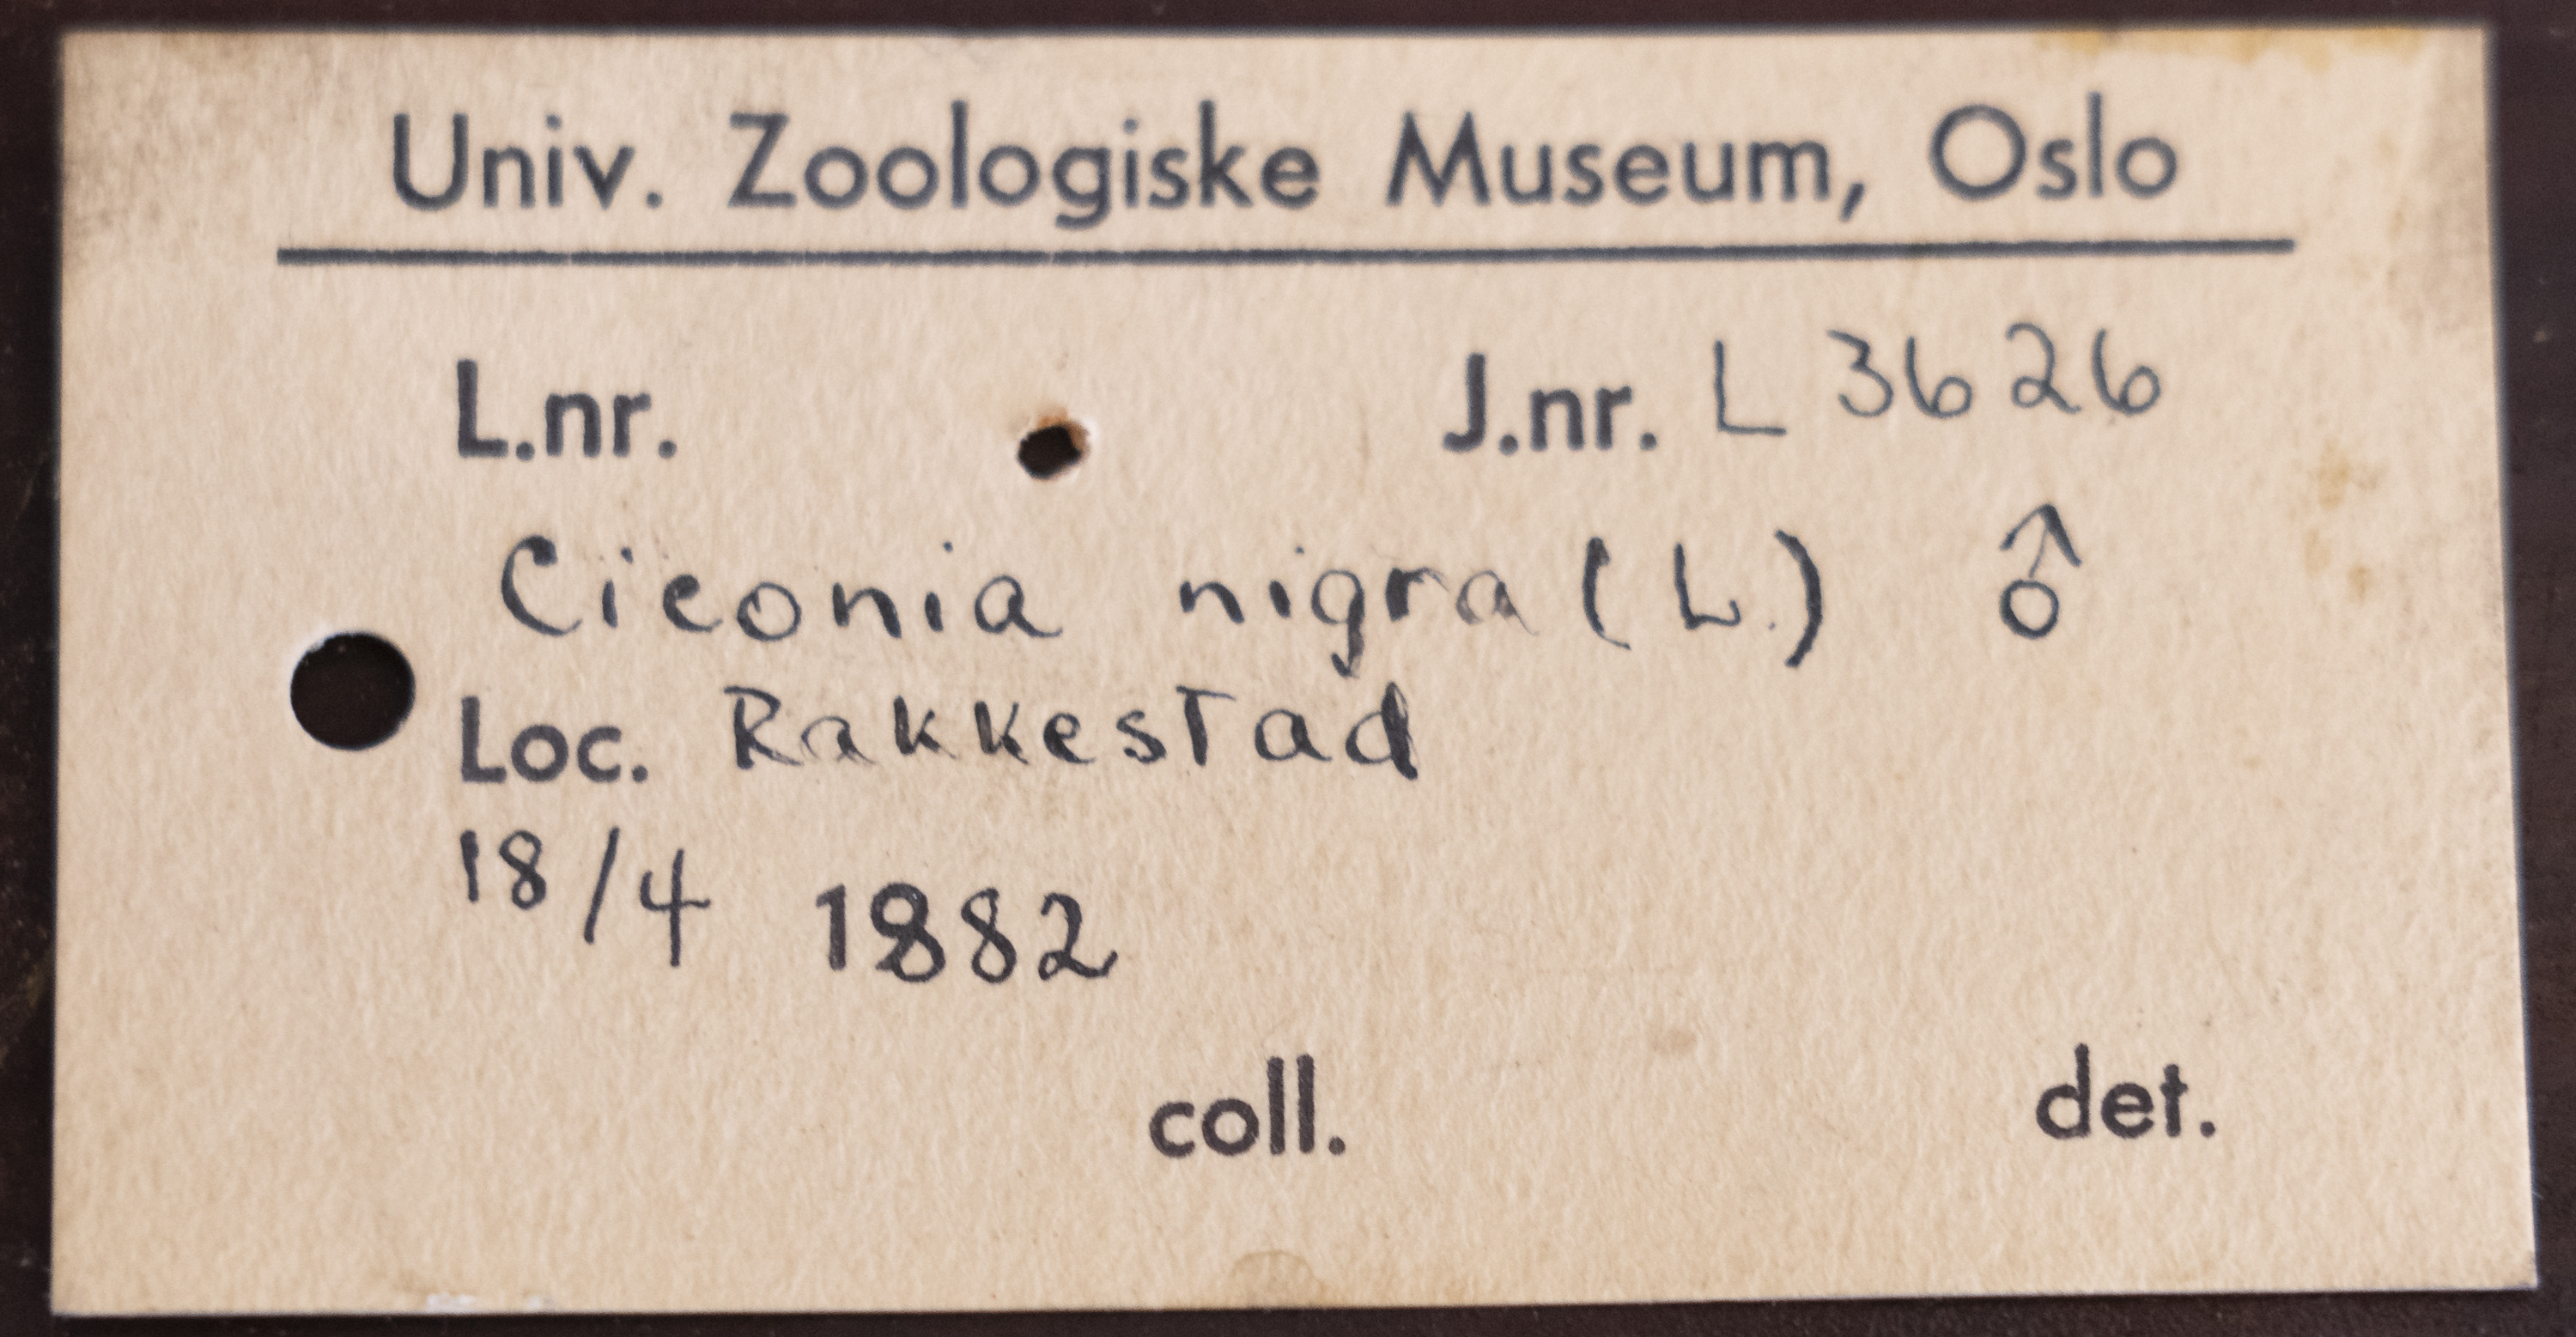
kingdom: Animalia
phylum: Chordata
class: Aves
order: Ciconiiformes
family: Ciconiidae
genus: Ciconia
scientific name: Ciconia nigra
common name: Black stork
